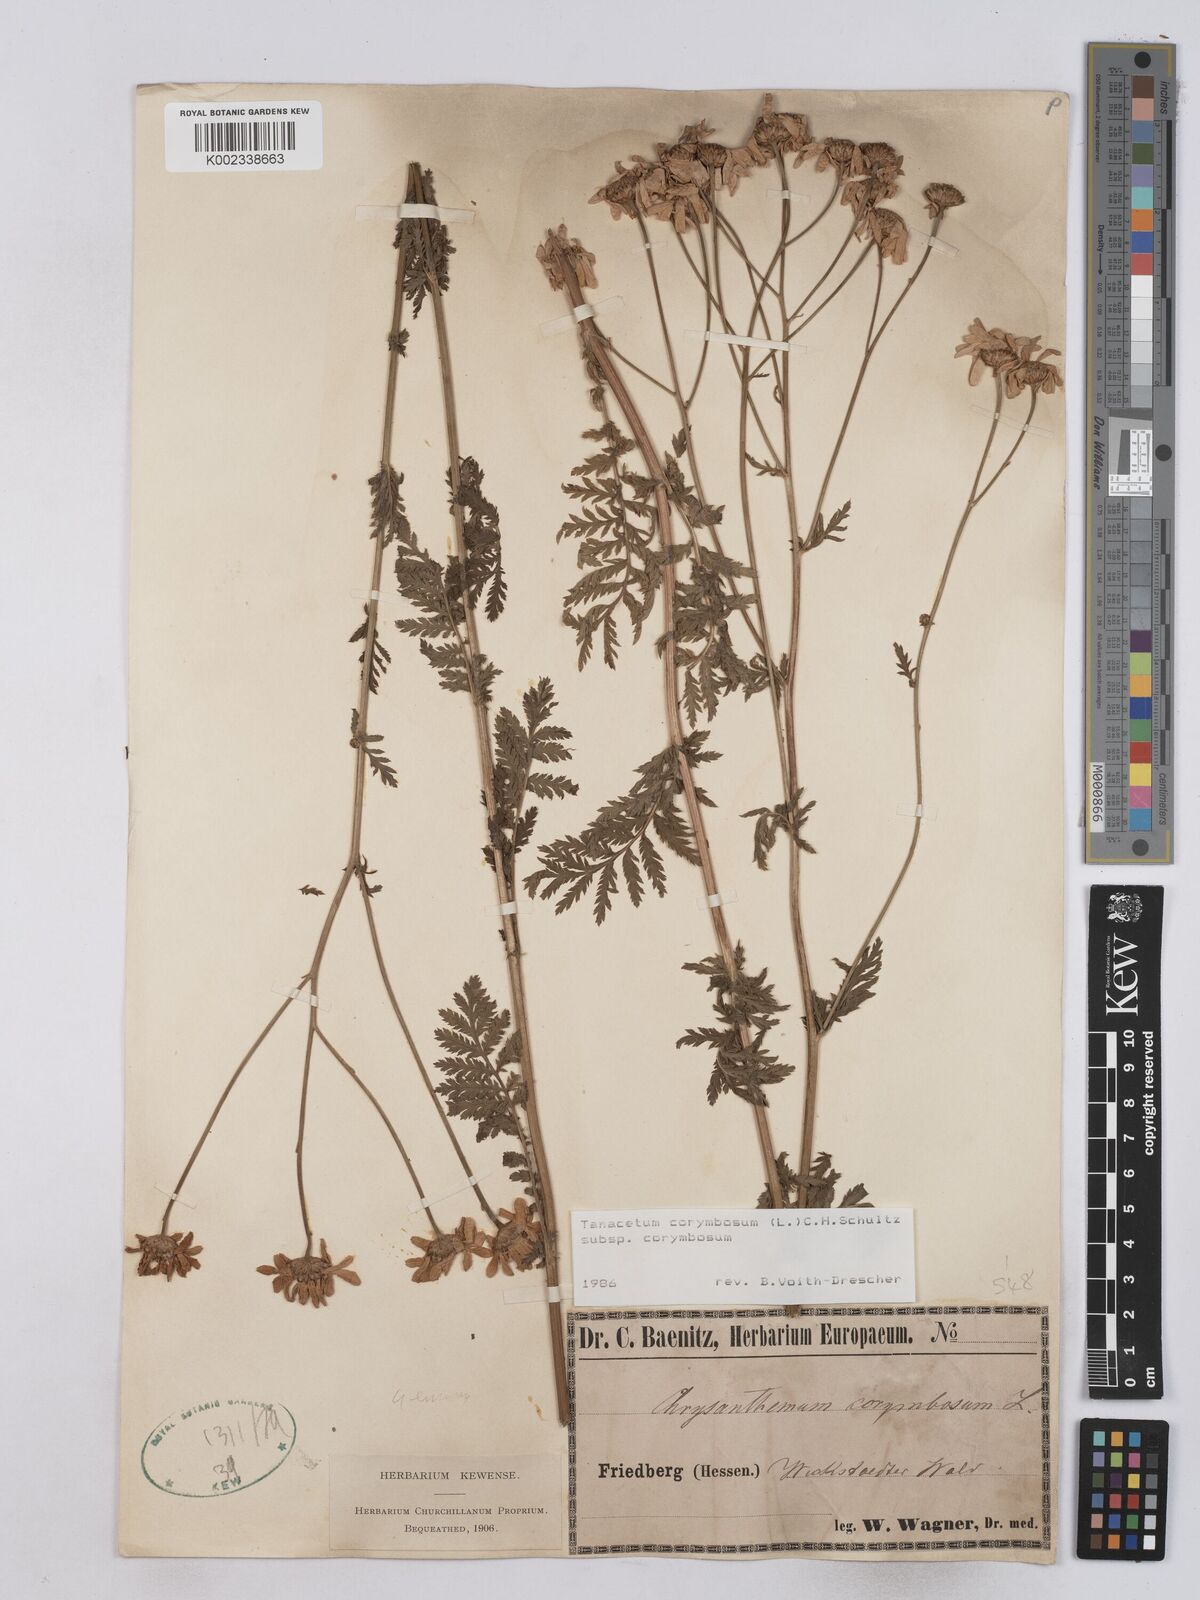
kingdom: Plantae
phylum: Tracheophyta
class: Magnoliopsida
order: Asterales
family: Asteraceae
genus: Tanacetum
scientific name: Tanacetum corymbosum
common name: Scentless feverfew
